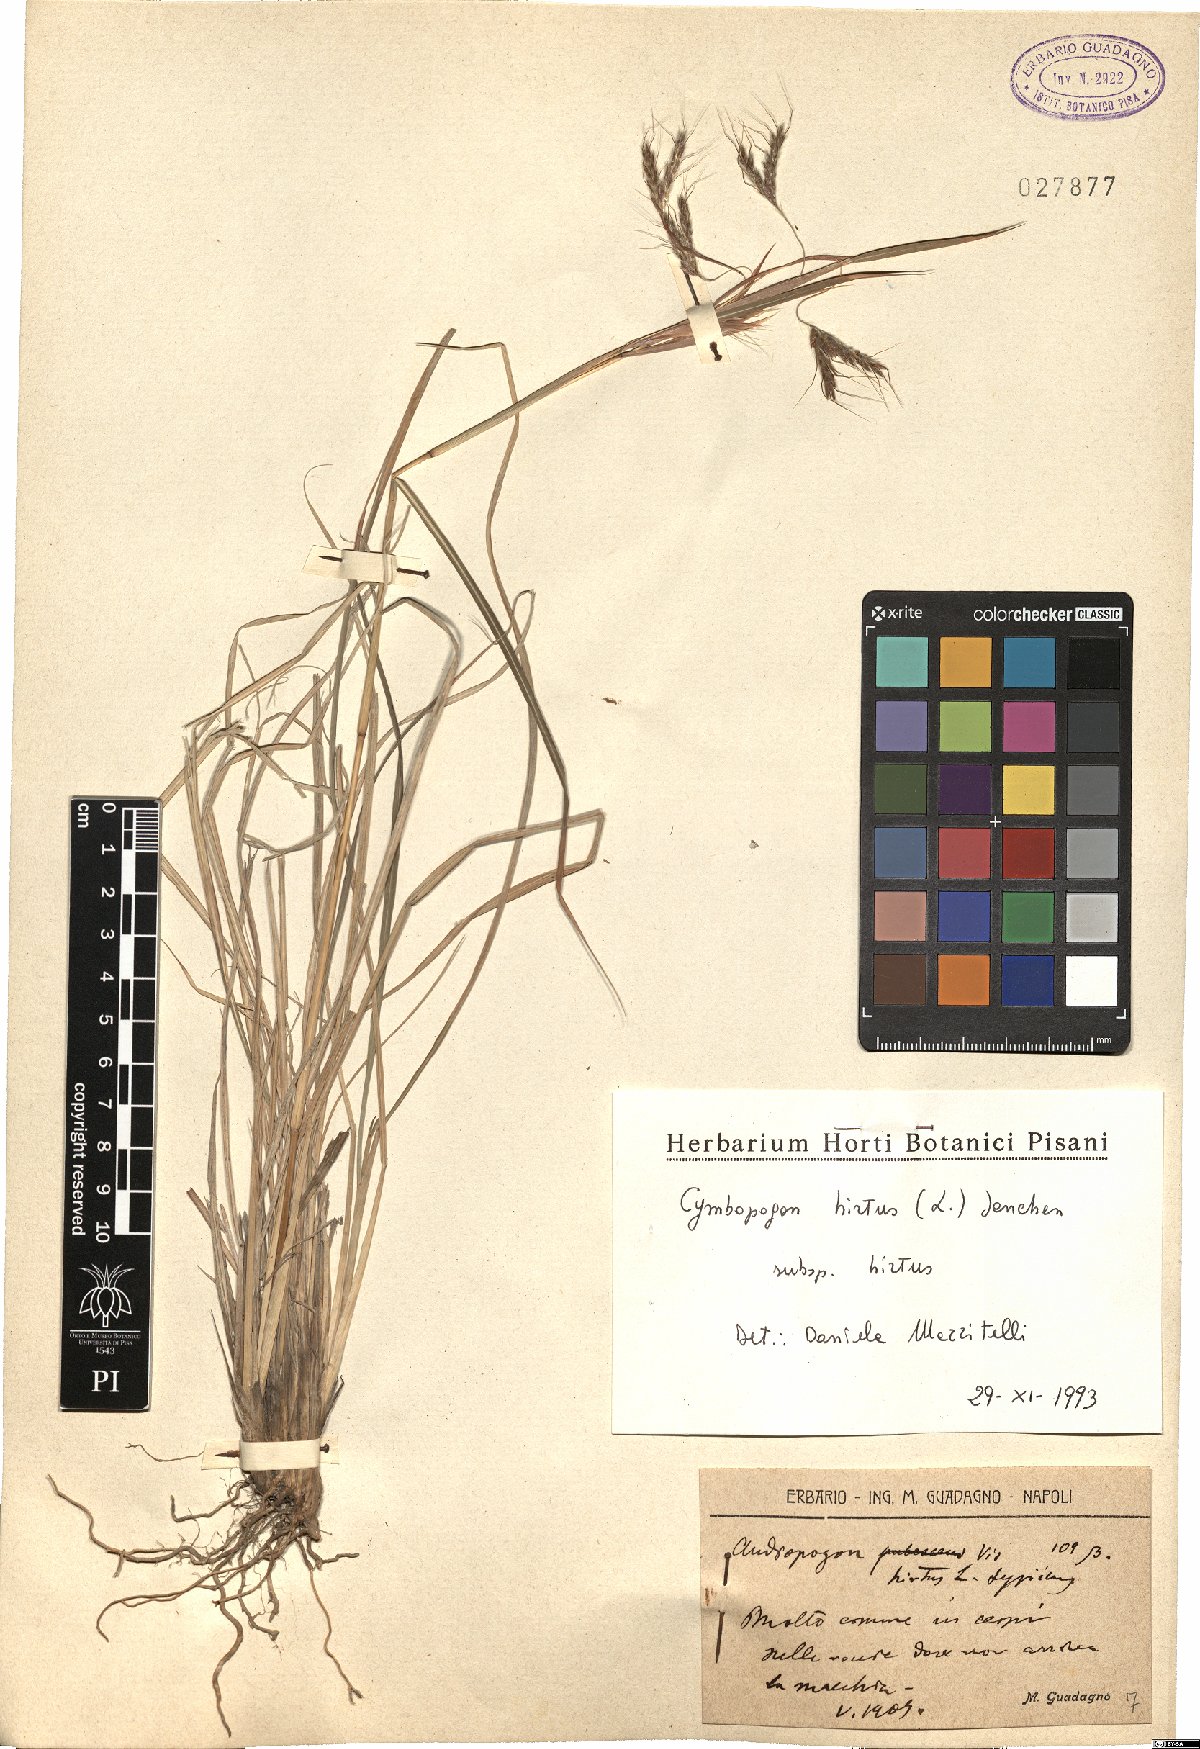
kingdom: Plantae
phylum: Tracheophyta
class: Liliopsida
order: Poales
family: Poaceae
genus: Cymbopogon
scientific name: Cymbopogon hirtus
